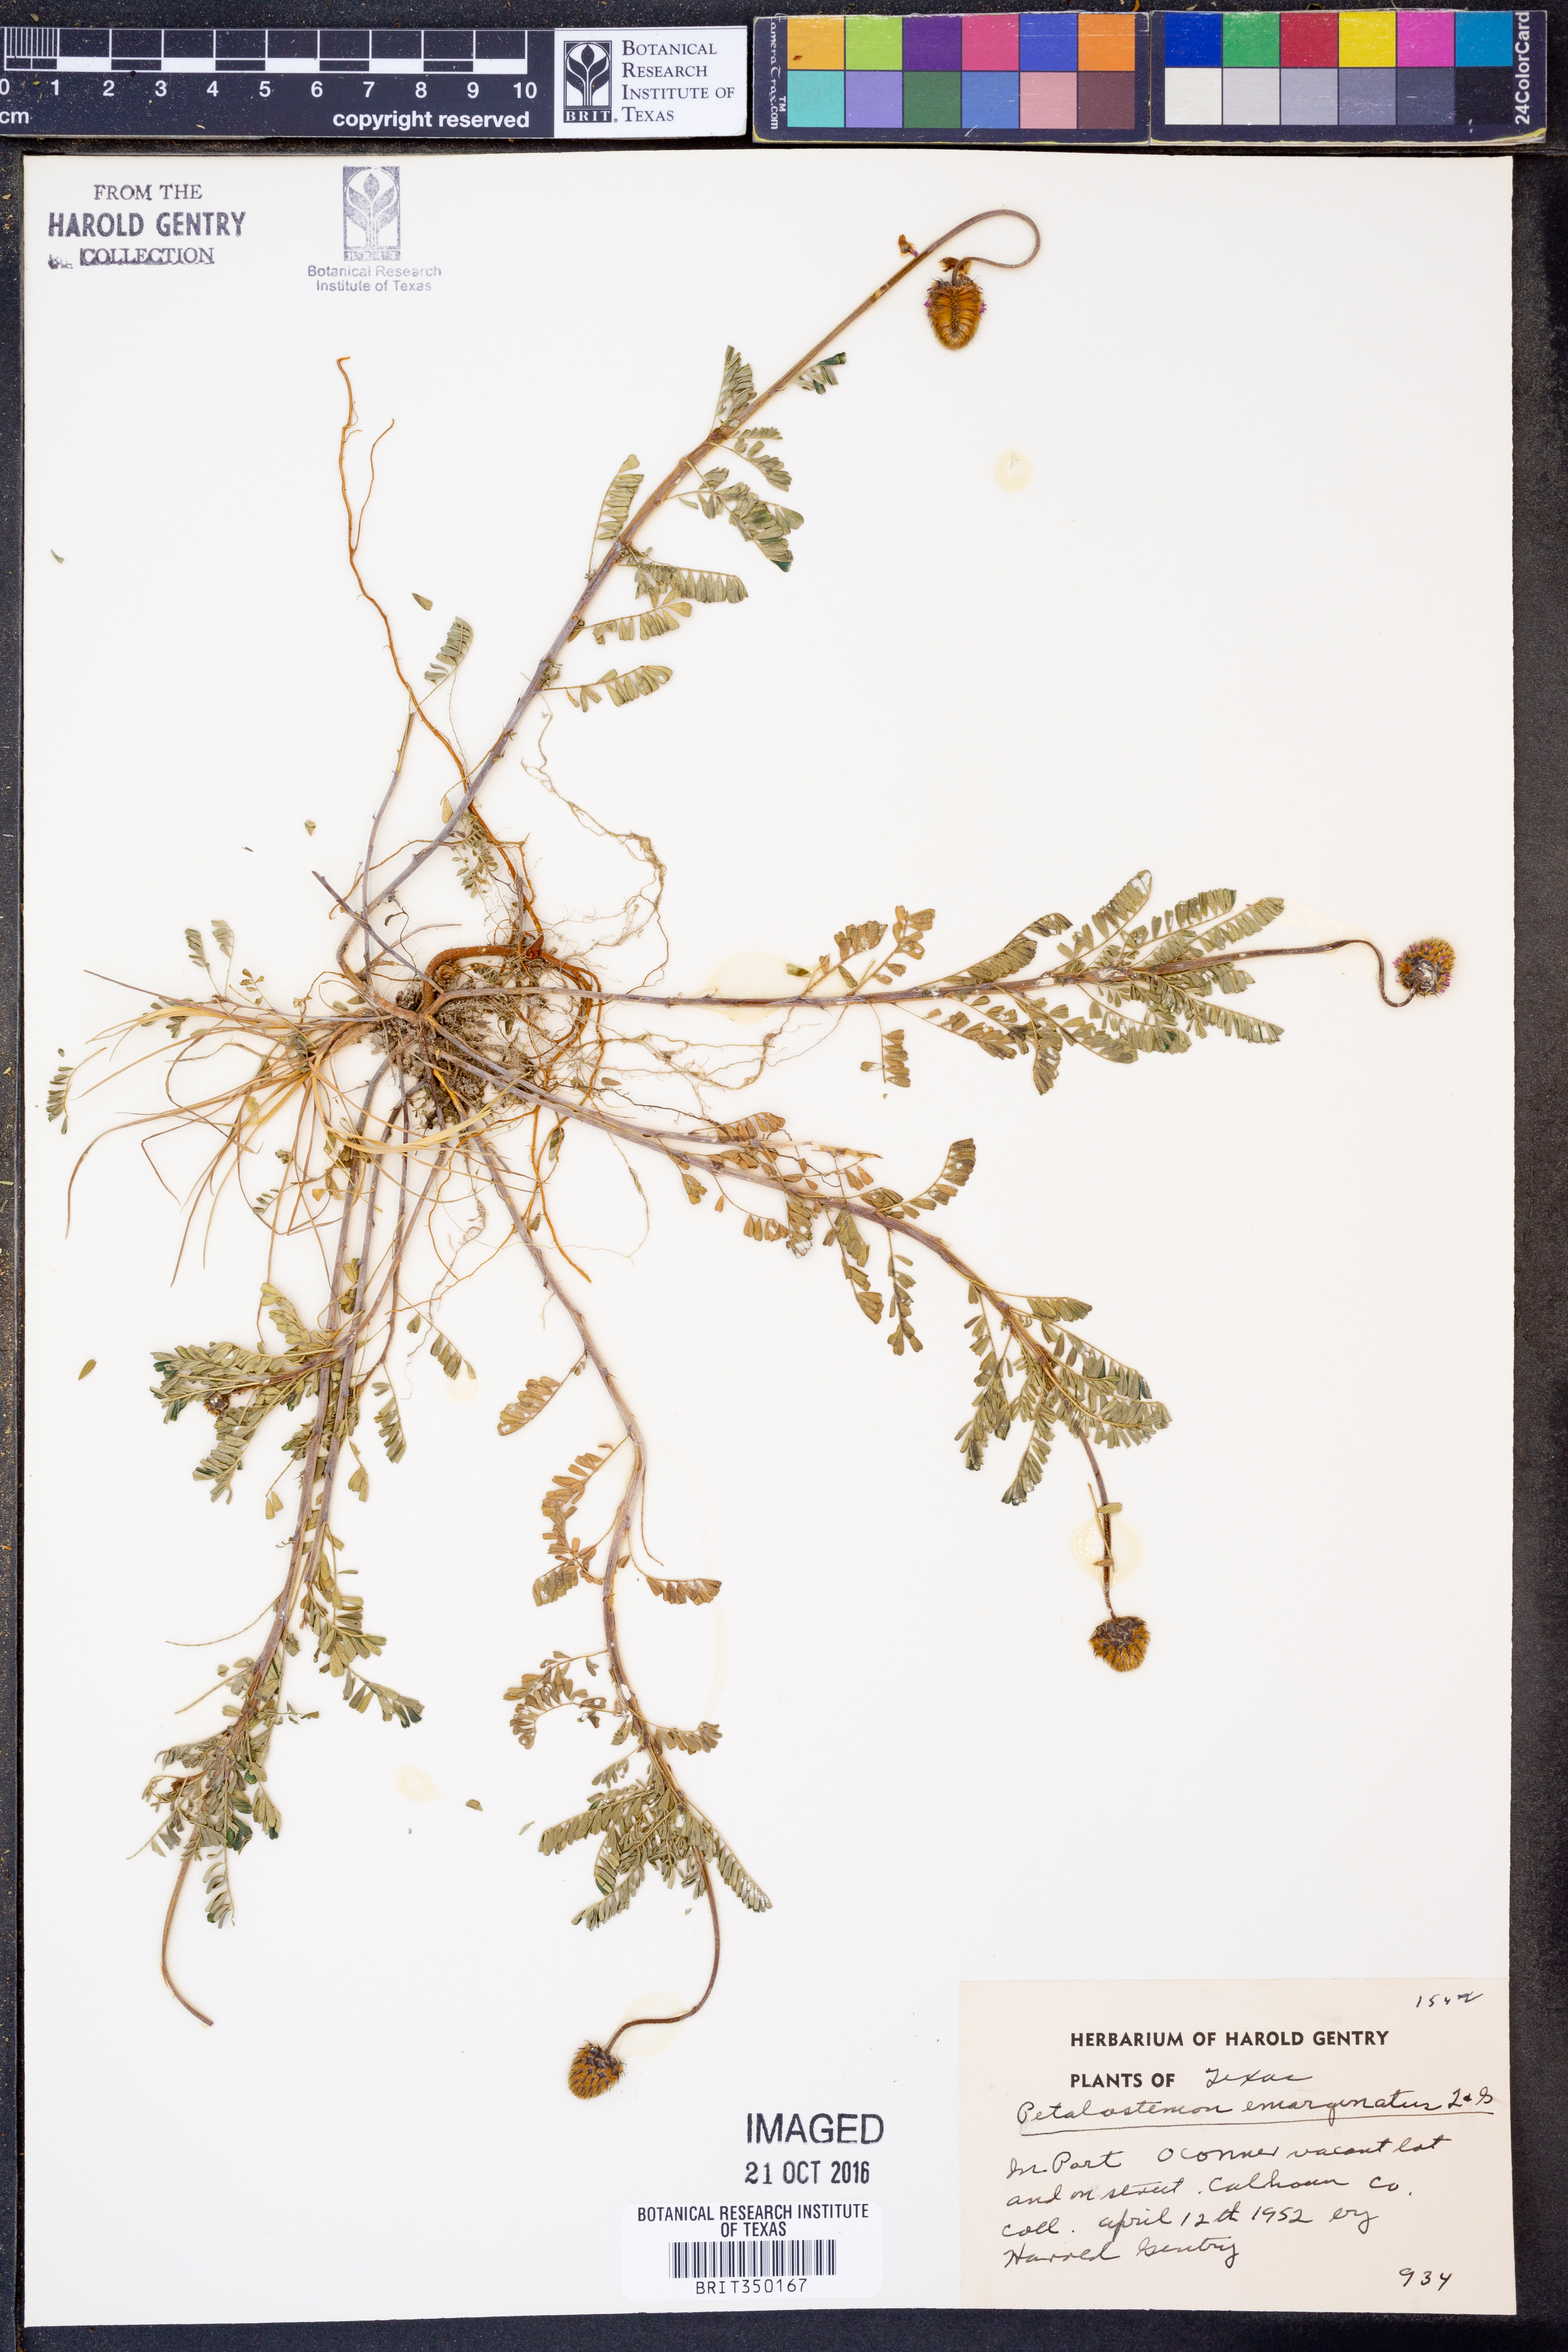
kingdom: Plantae
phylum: Tracheophyta
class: Magnoliopsida
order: Fabales
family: Fabaceae
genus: Dalea
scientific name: Dalea emarginata
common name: Wedgeleaf prairie clover
